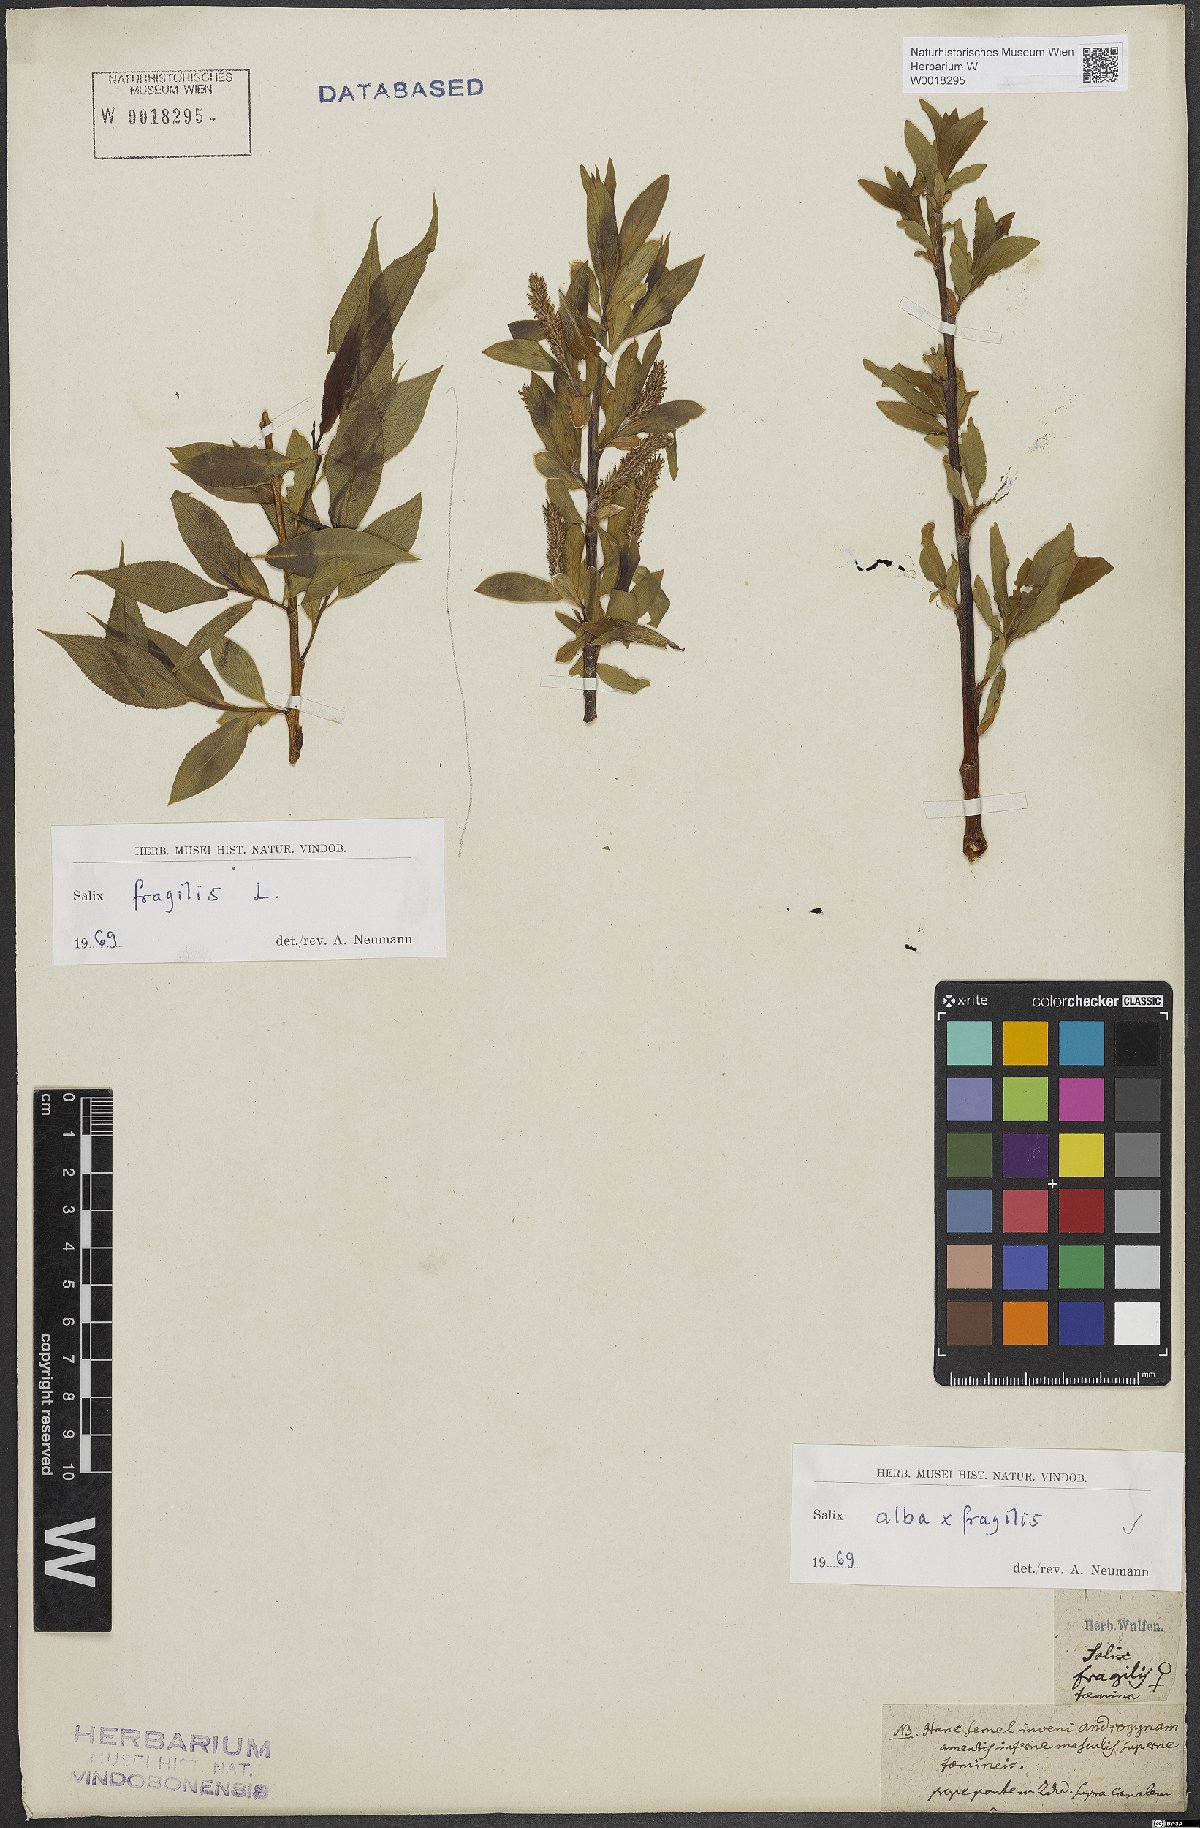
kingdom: Plantae
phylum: Tracheophyta
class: Magnoliopsida
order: Malpighiales
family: Salicaceae
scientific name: Salicaceae
